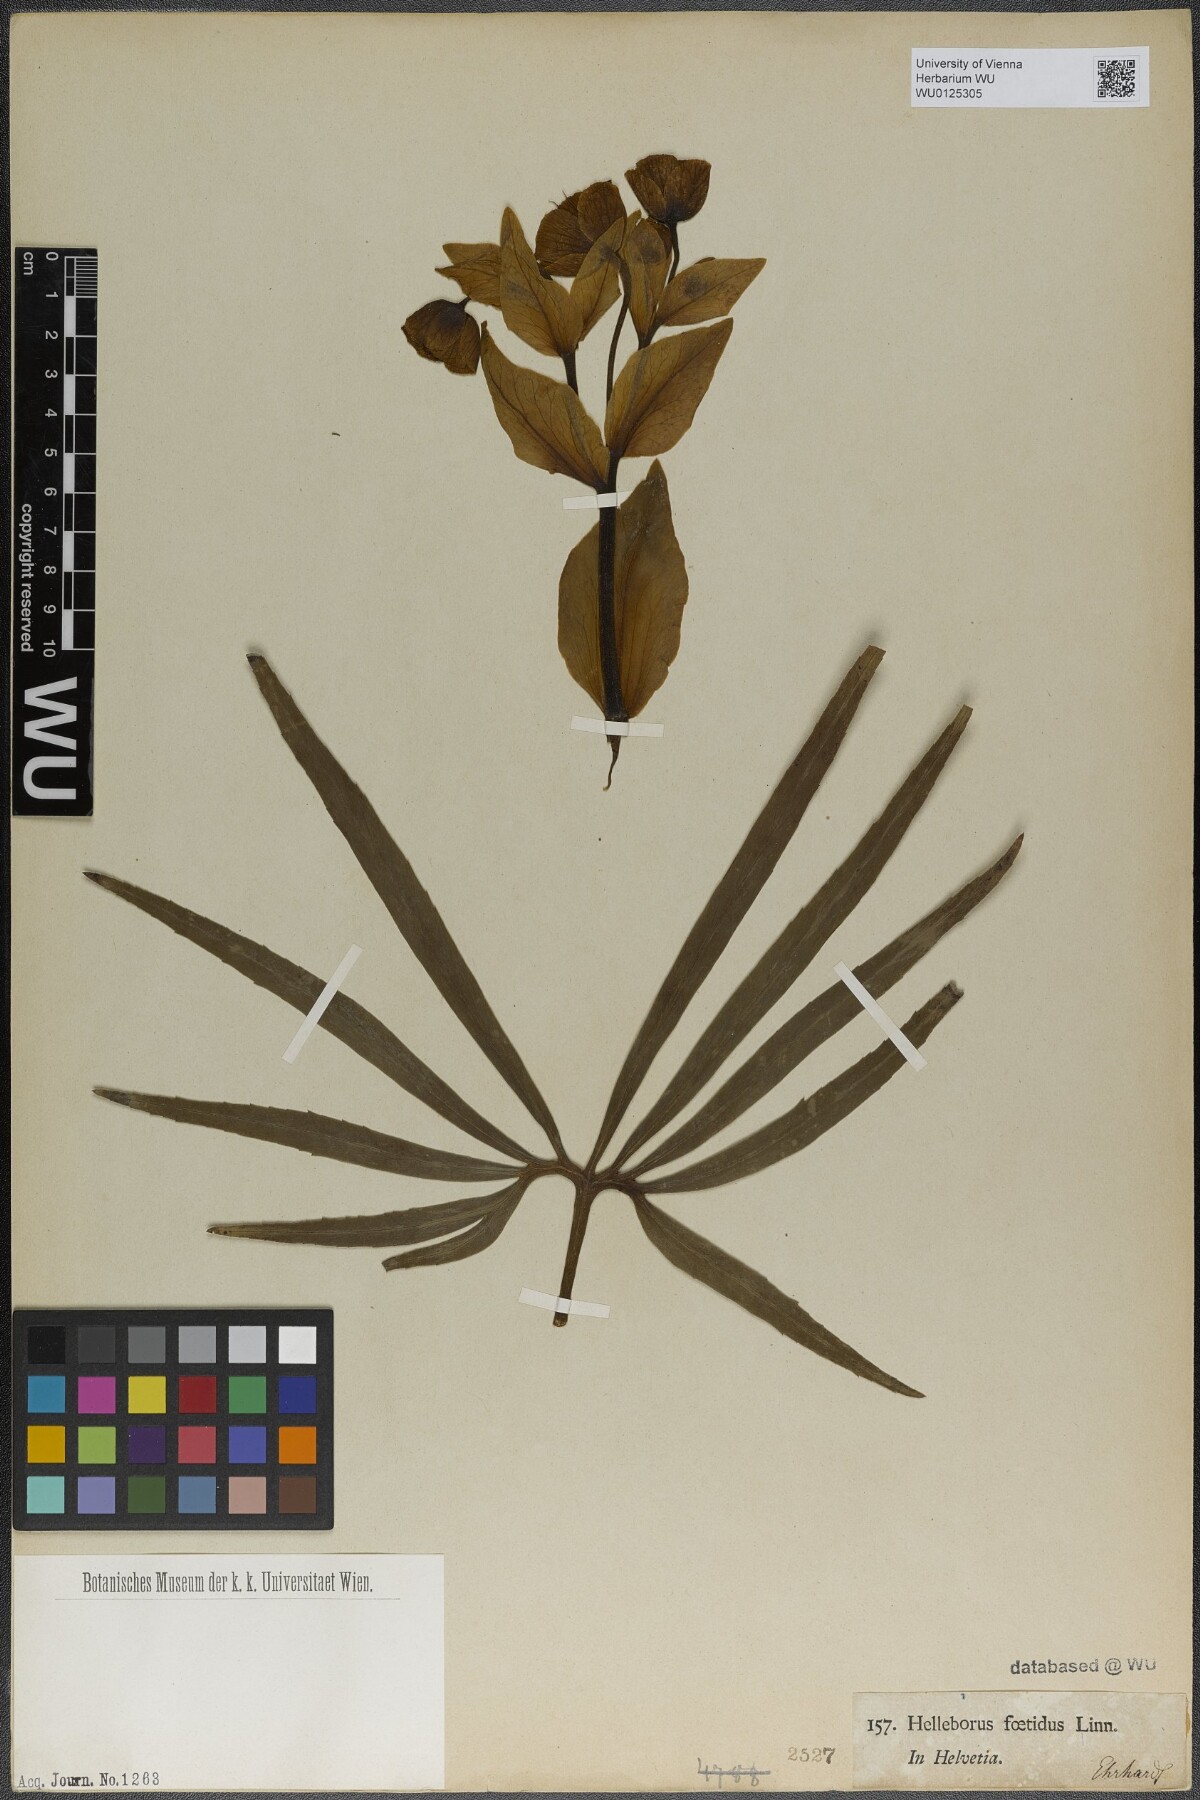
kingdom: Plantae
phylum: Tracheophyta
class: Magnoliopsida
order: Ranunculales
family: Ranunculaceae
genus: Helleborus
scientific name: Helleborus foetidus
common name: Stinking hellebore
